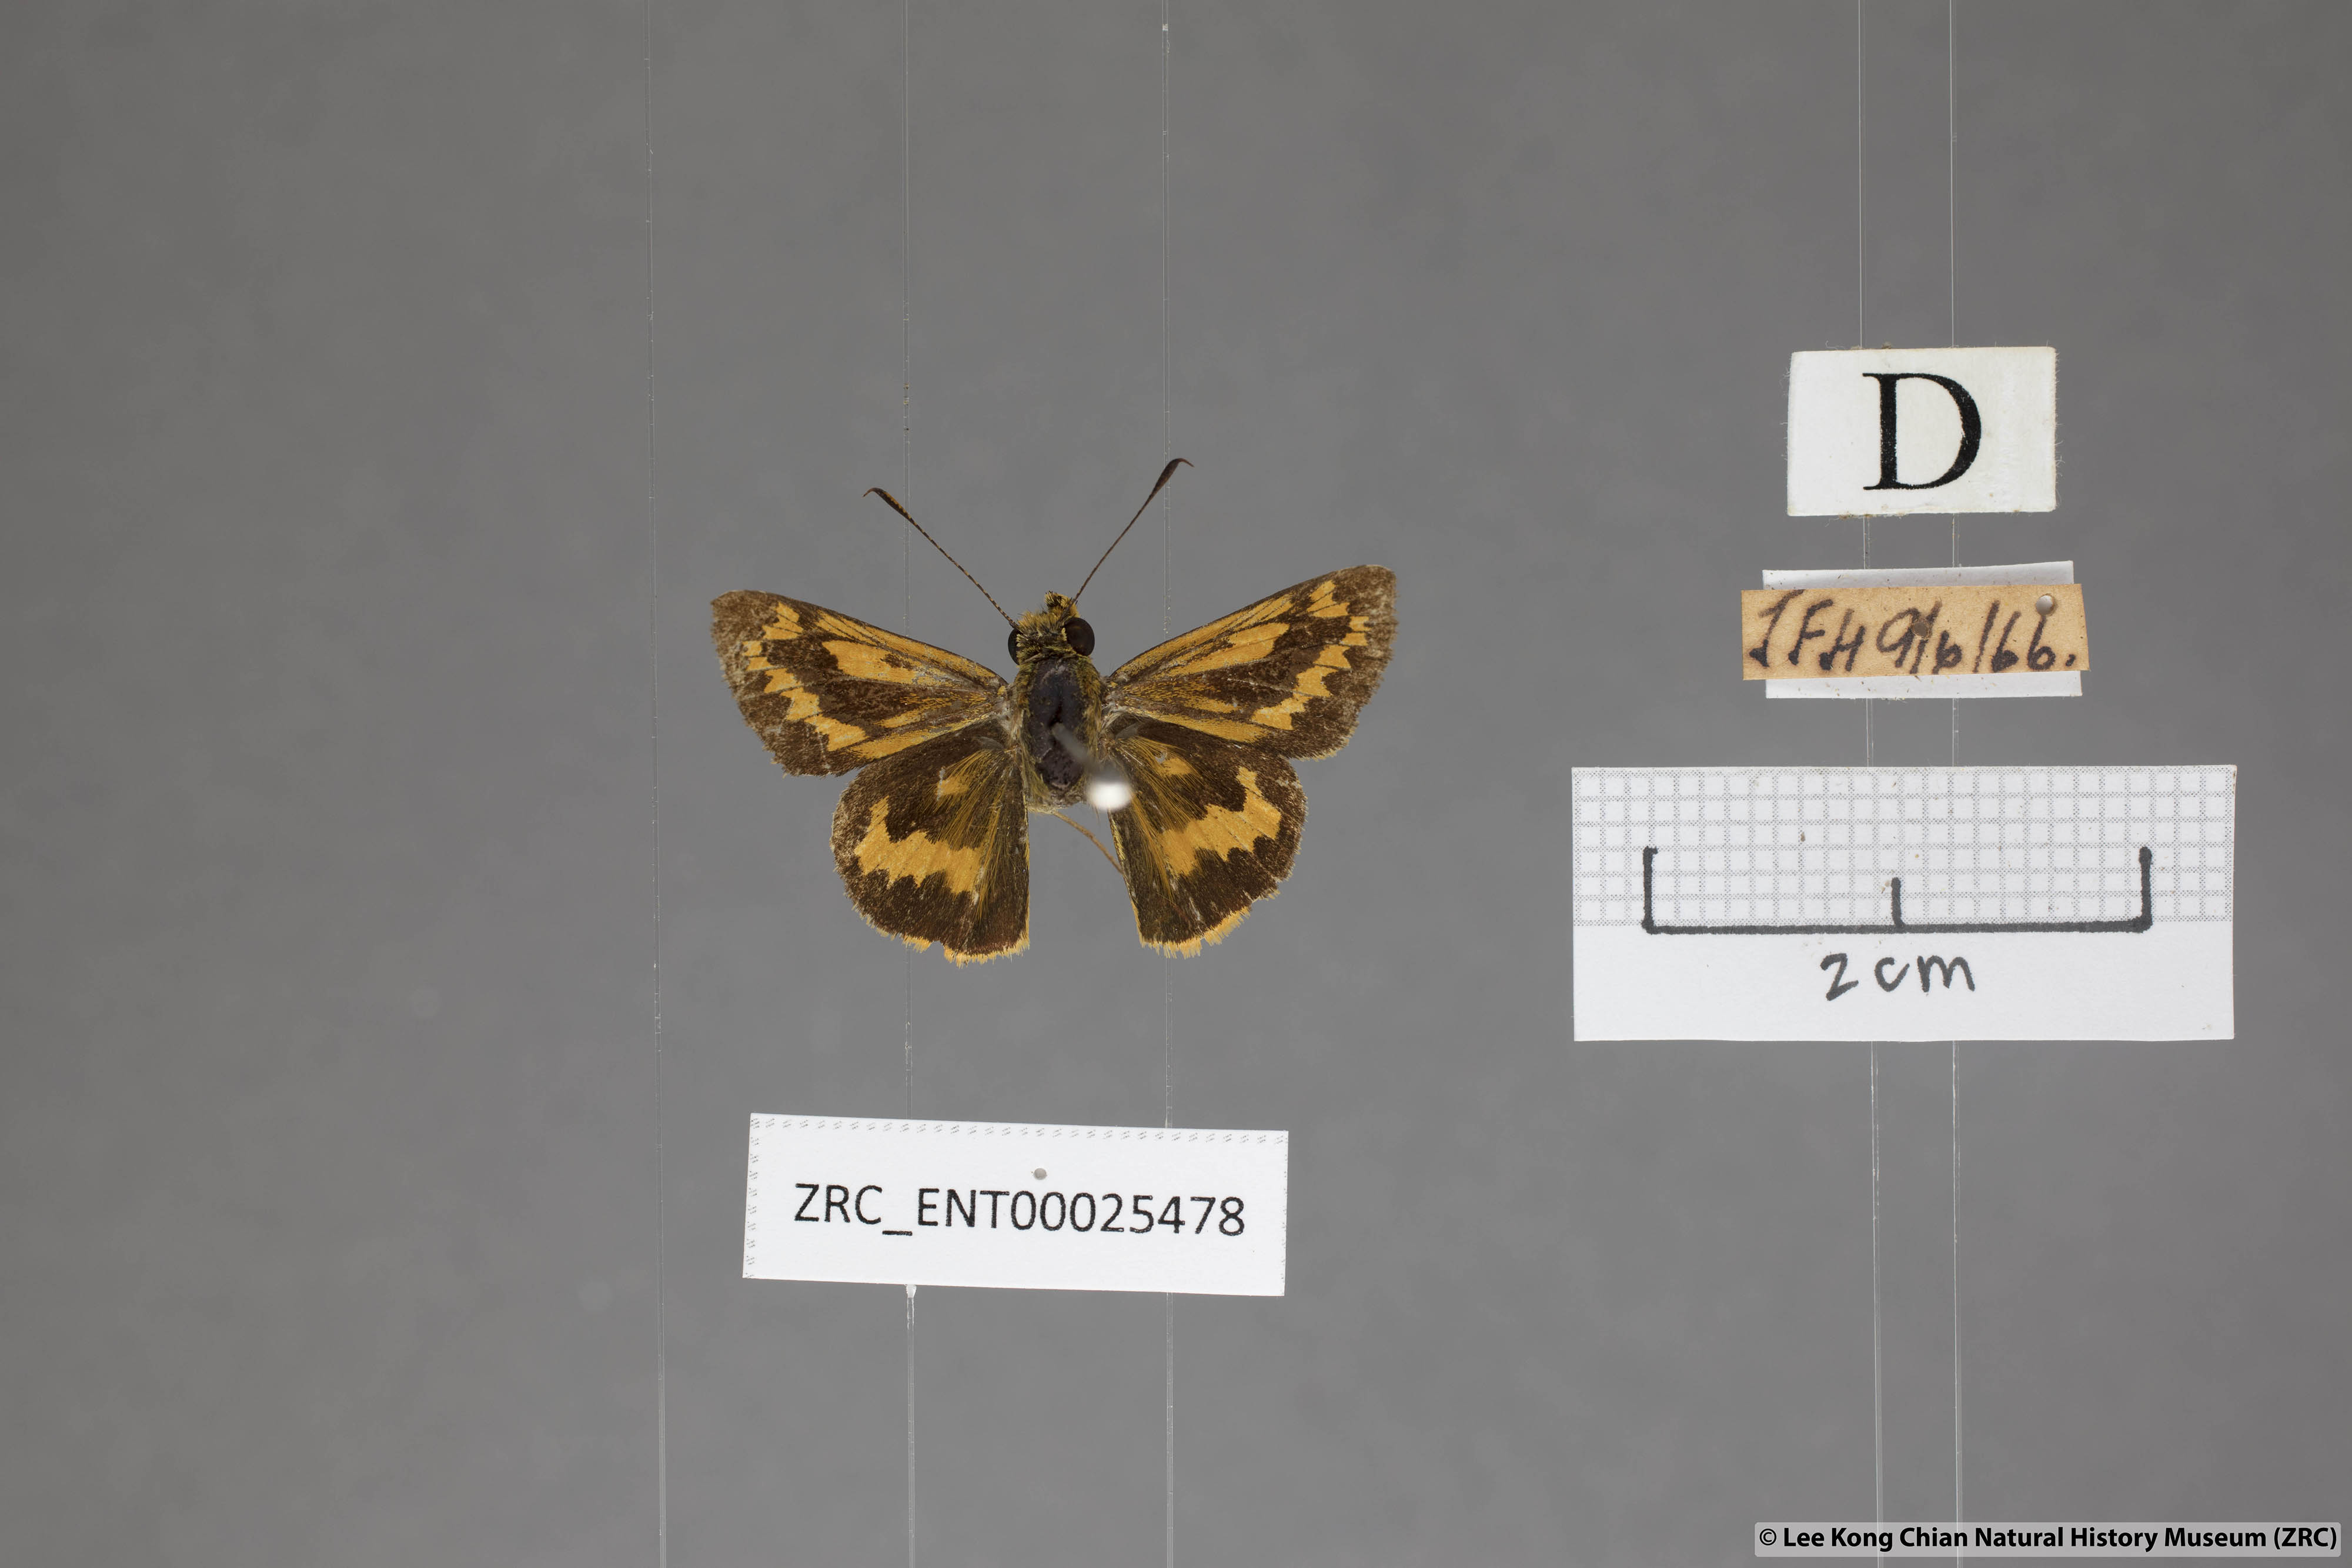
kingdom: Animalia
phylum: Arthropoda
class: Insecta
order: Lepidoptera
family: Hesperiidae
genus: Potanthus
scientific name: Potanthus rectifasciata
